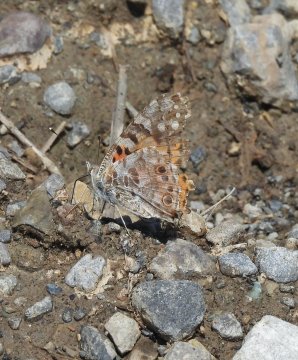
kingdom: Animalia
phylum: Arthropoda
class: Insecta
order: Lepidoptera
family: Nymphalidae
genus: Vanessa
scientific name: Vanessa cardui
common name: Painted Lady
